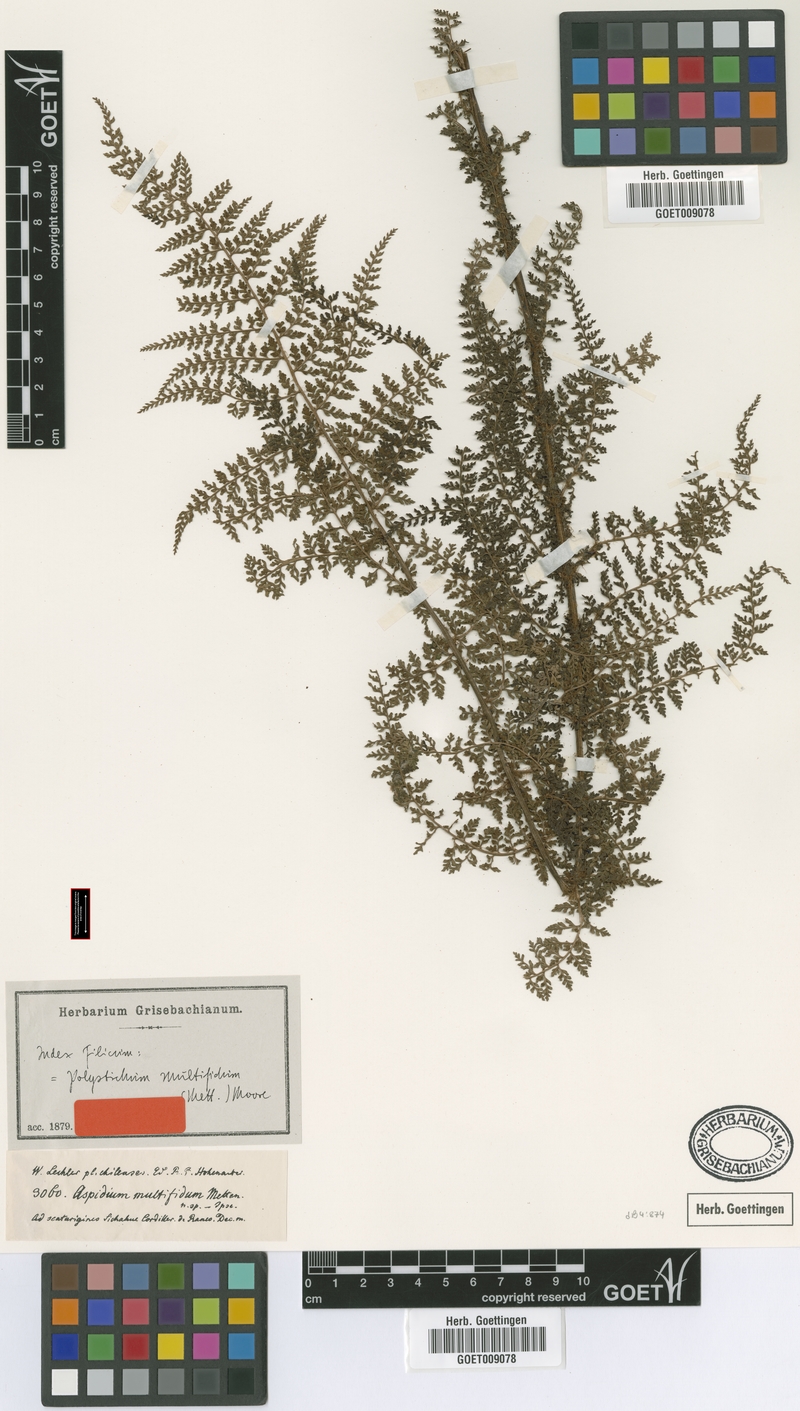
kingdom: Plantae
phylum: Tracheophyta
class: Polypodiopsida
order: Polypodiales
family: Dryopteridaceae
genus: Polystichum
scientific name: Polystichum multifidum
